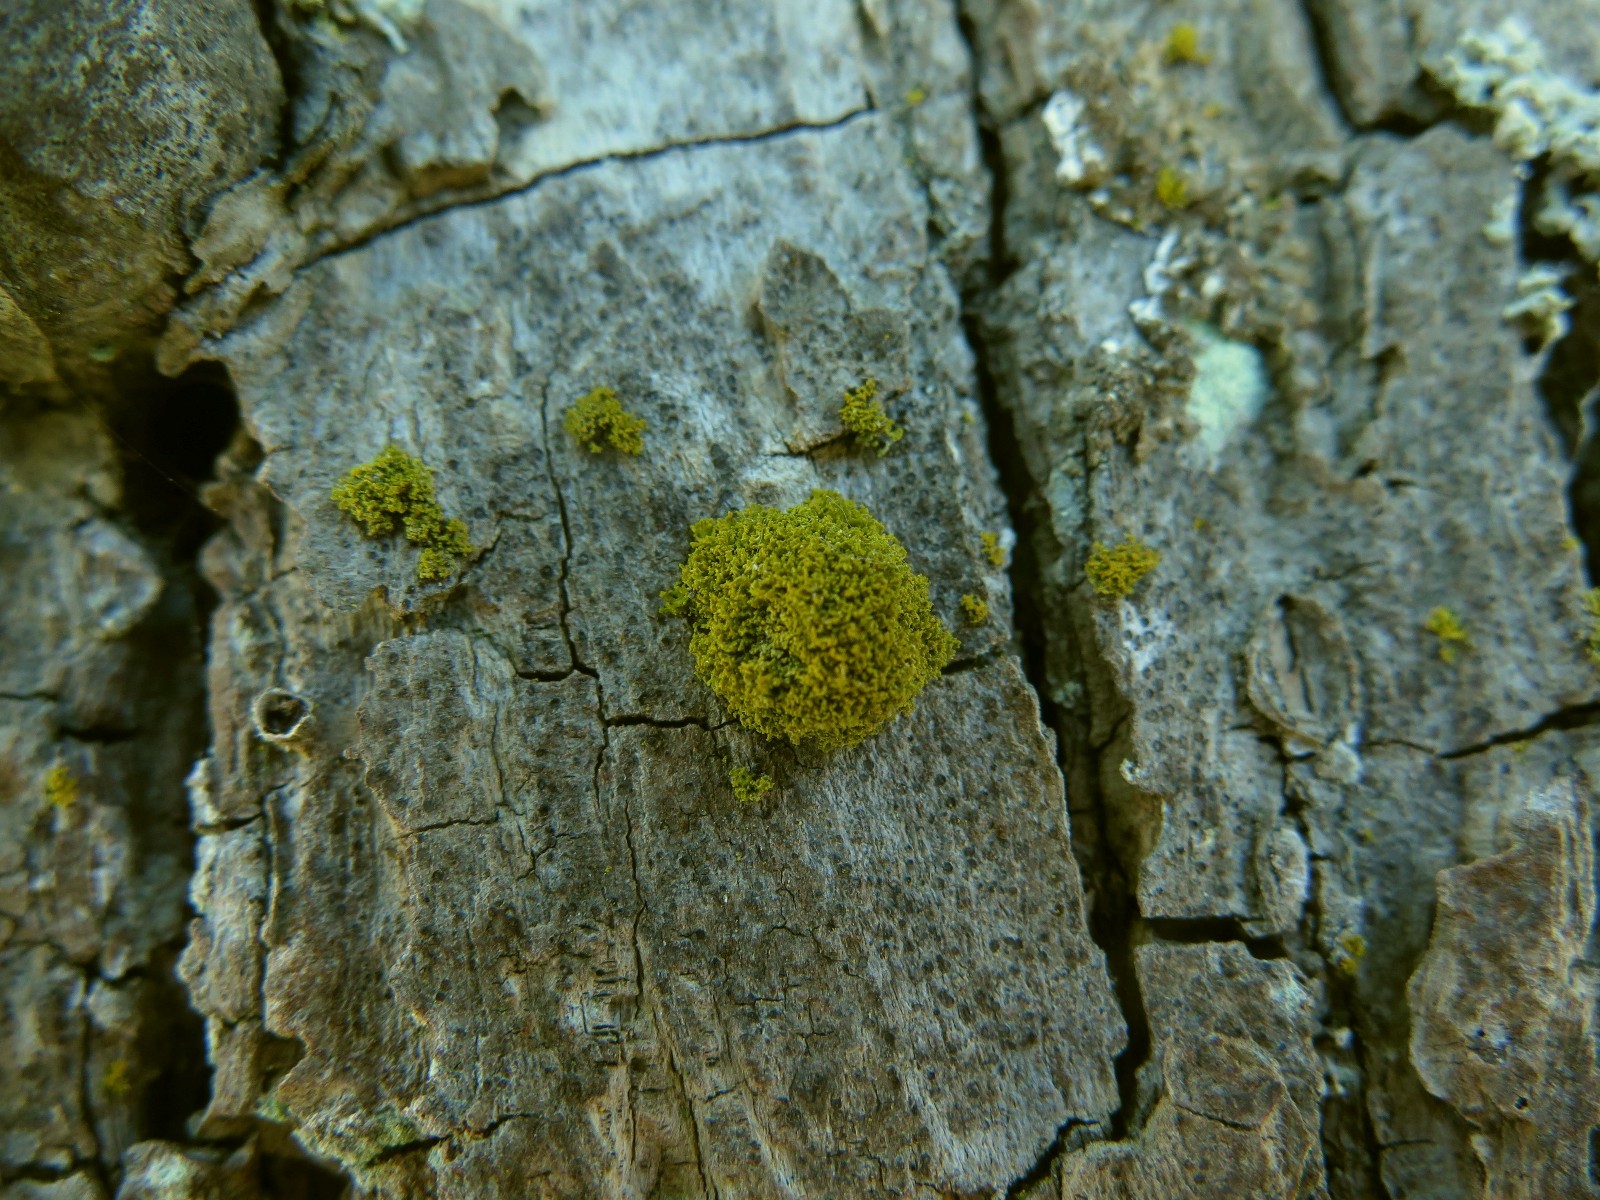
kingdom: Fungi
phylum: Ascomycota
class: Lecanoromycetes
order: Teloschistales
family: Teloschistaceae
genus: Polycauliona
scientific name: Polycauliona candelaria
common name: tue-orangelav
